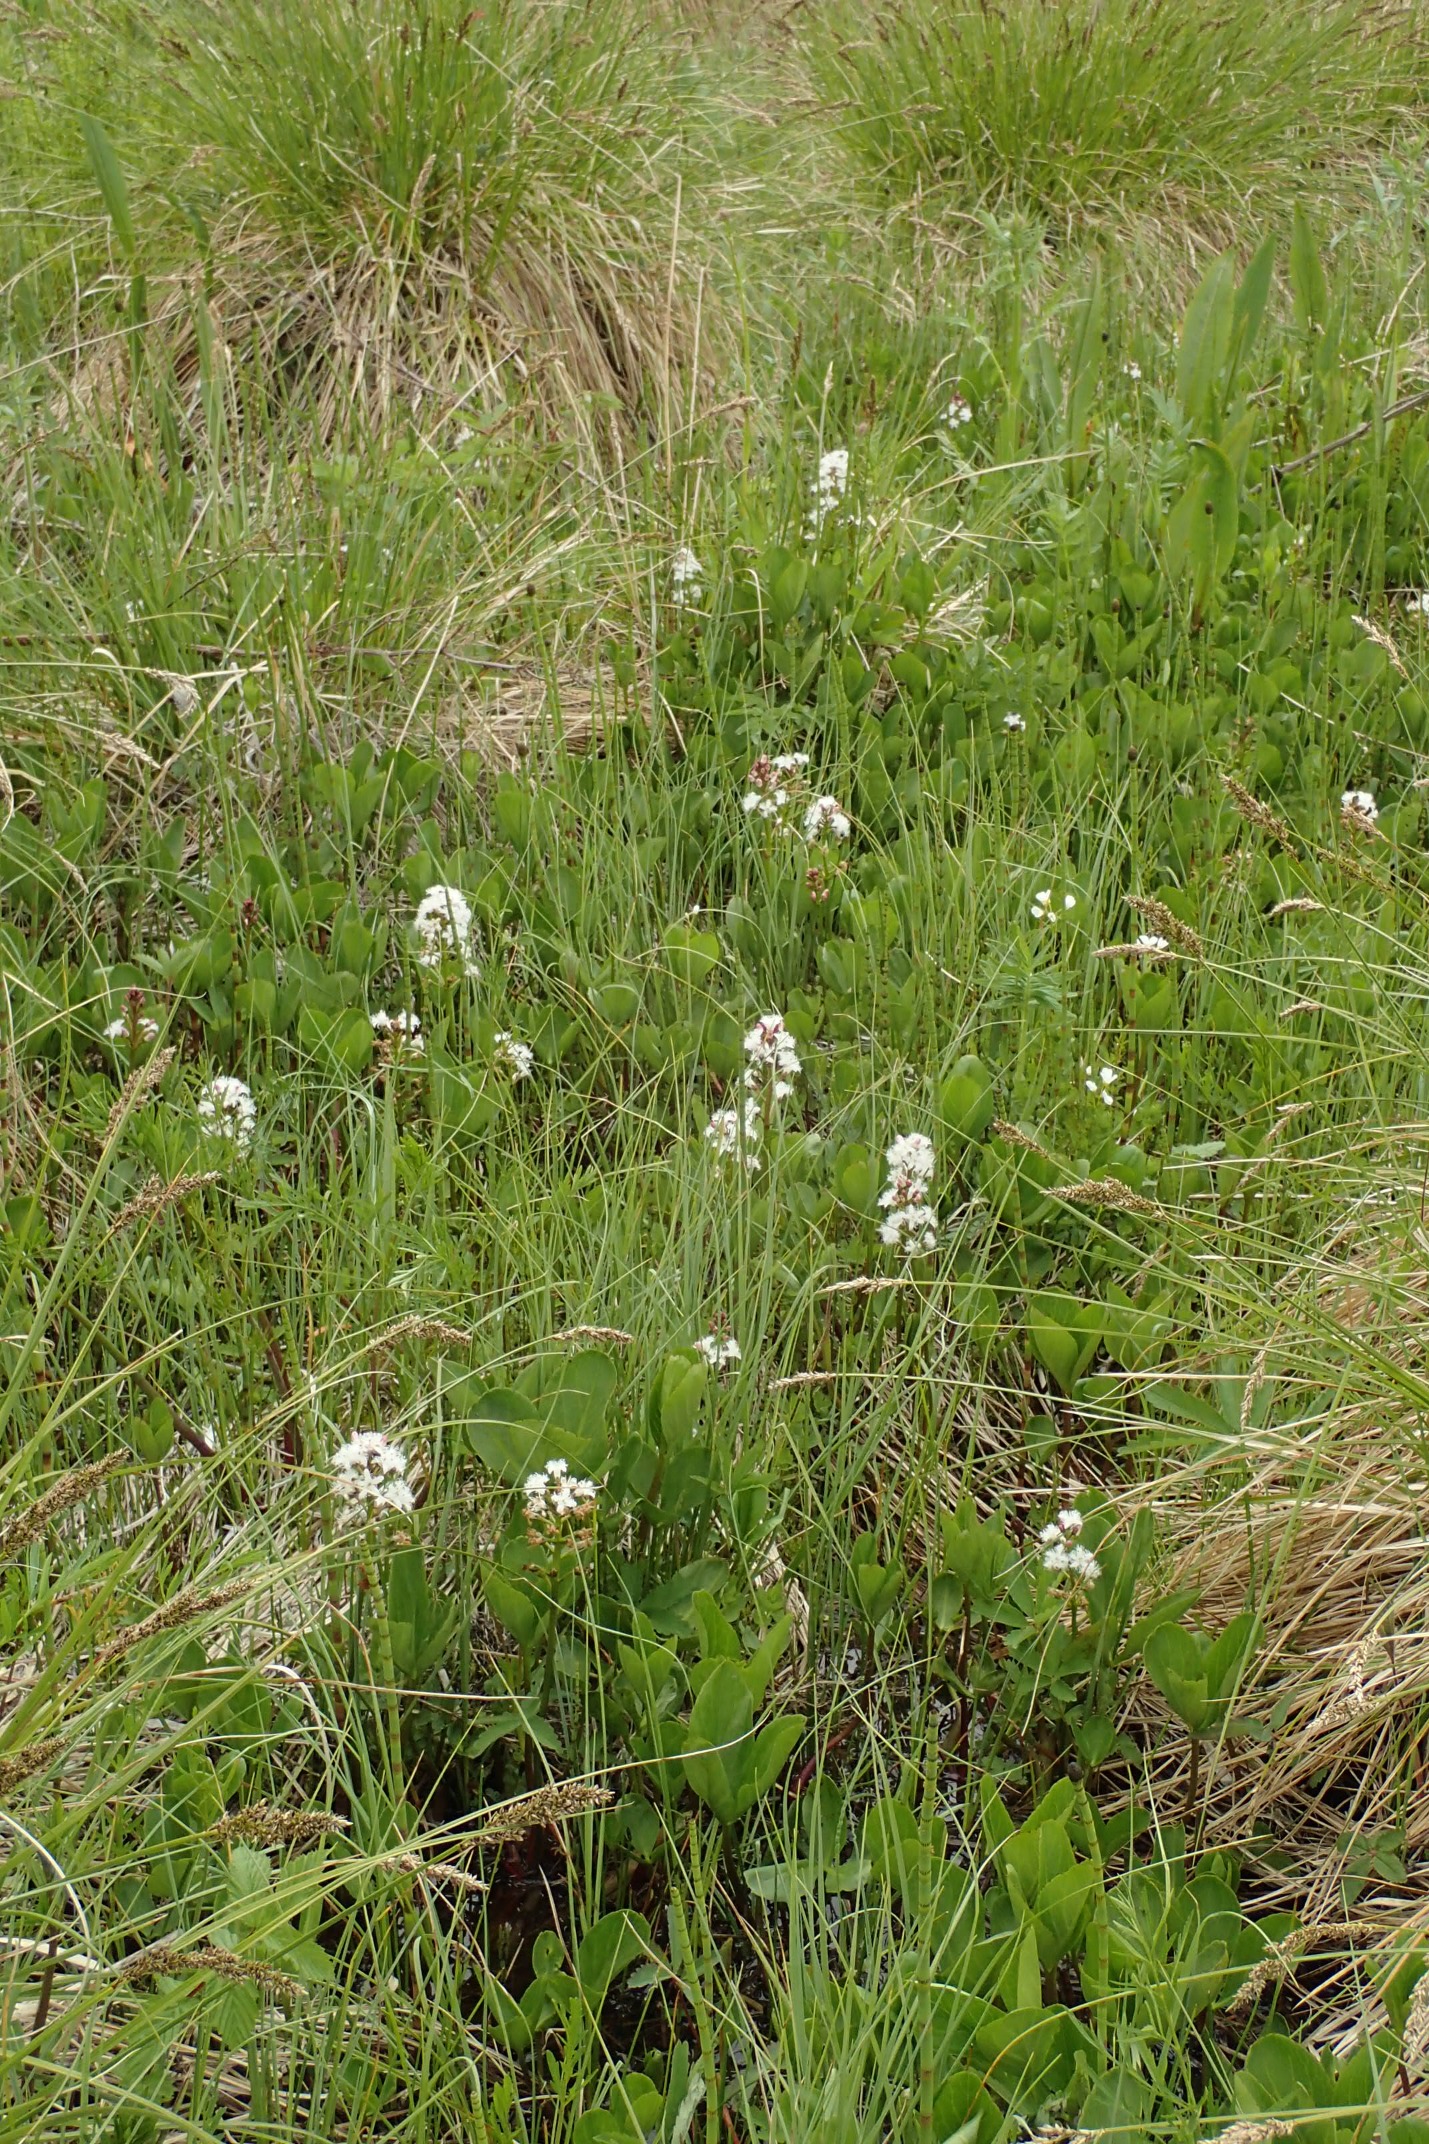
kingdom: Plantae
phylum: Tracheophyta
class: Magnoliopsida
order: Asterales
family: Menyanthaceae
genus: Menyanthes
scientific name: Menyanthes trifoliata
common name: Bukkeblad
